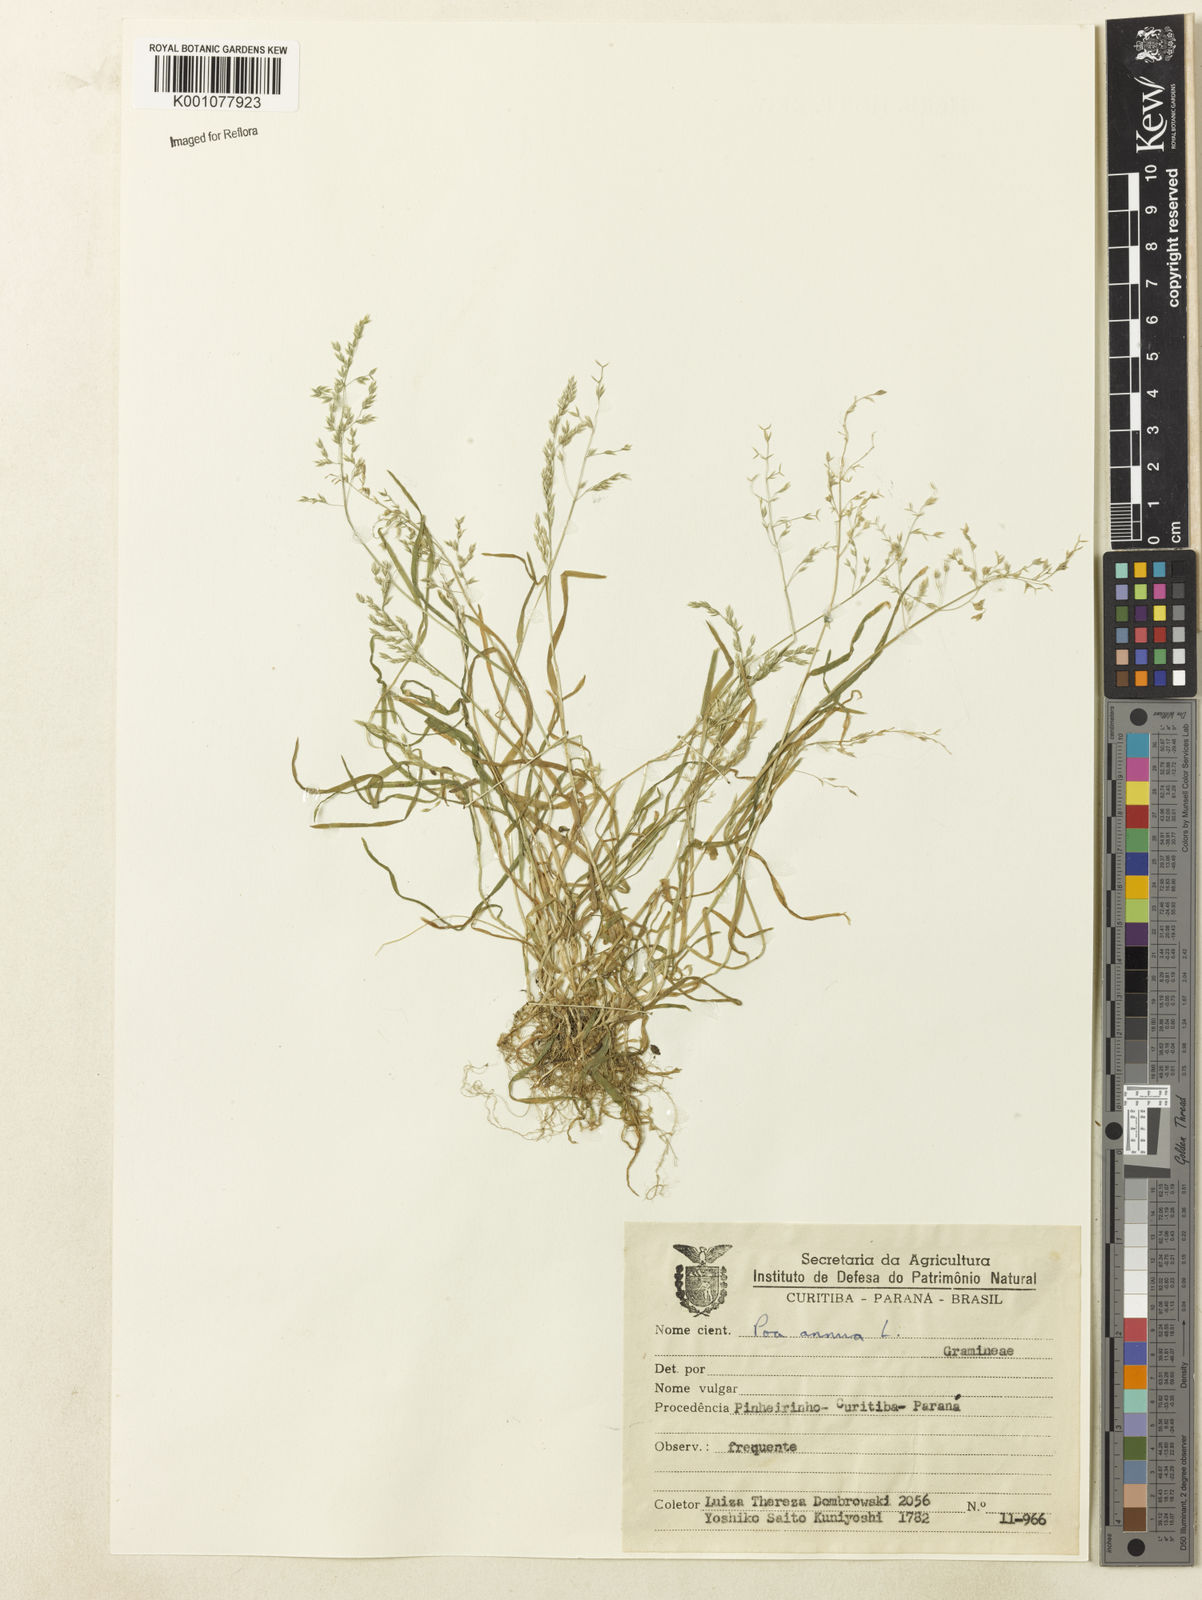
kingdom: Plantae
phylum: Tracheophyta
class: Liliopsida
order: Poales
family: Poaceae
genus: Poa
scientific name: Poa annua
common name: Annual bluegrass
